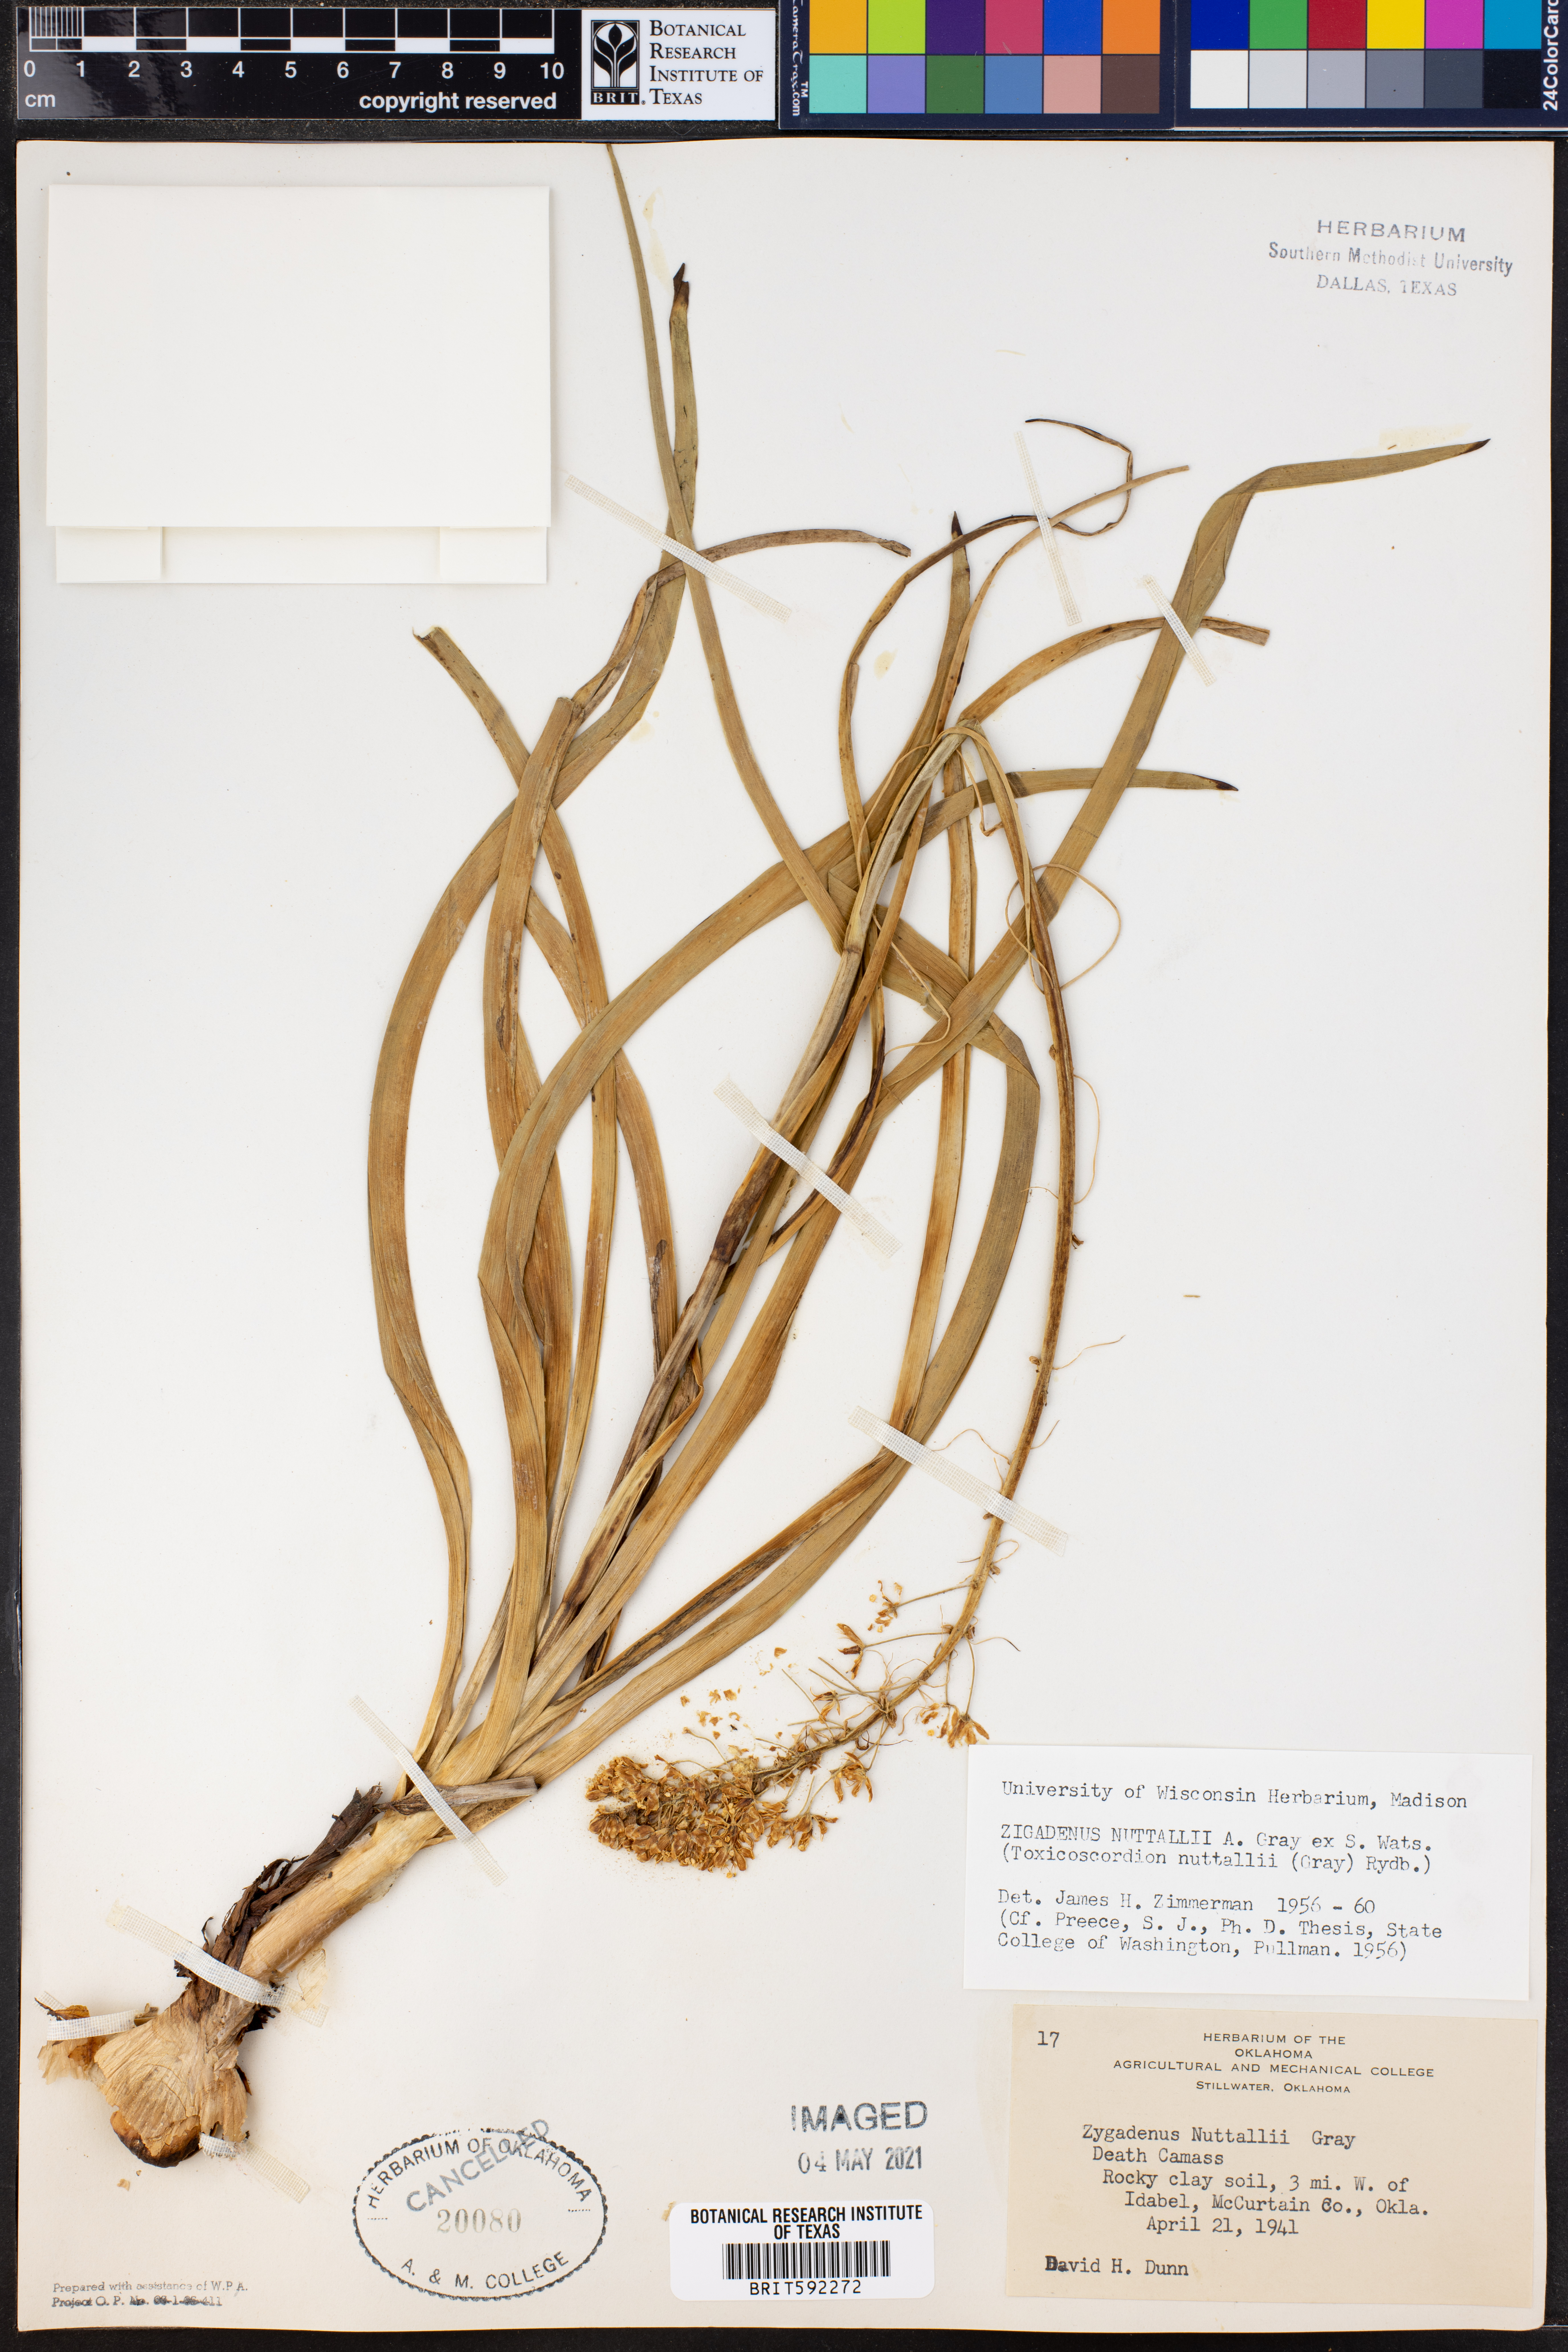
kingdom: Plantae
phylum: Tracheophyta
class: Liliopsida
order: Liliales
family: Melanthiaceae
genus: Toxicoscordion
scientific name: Toxicoscordion nuttallii
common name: Poison sego
